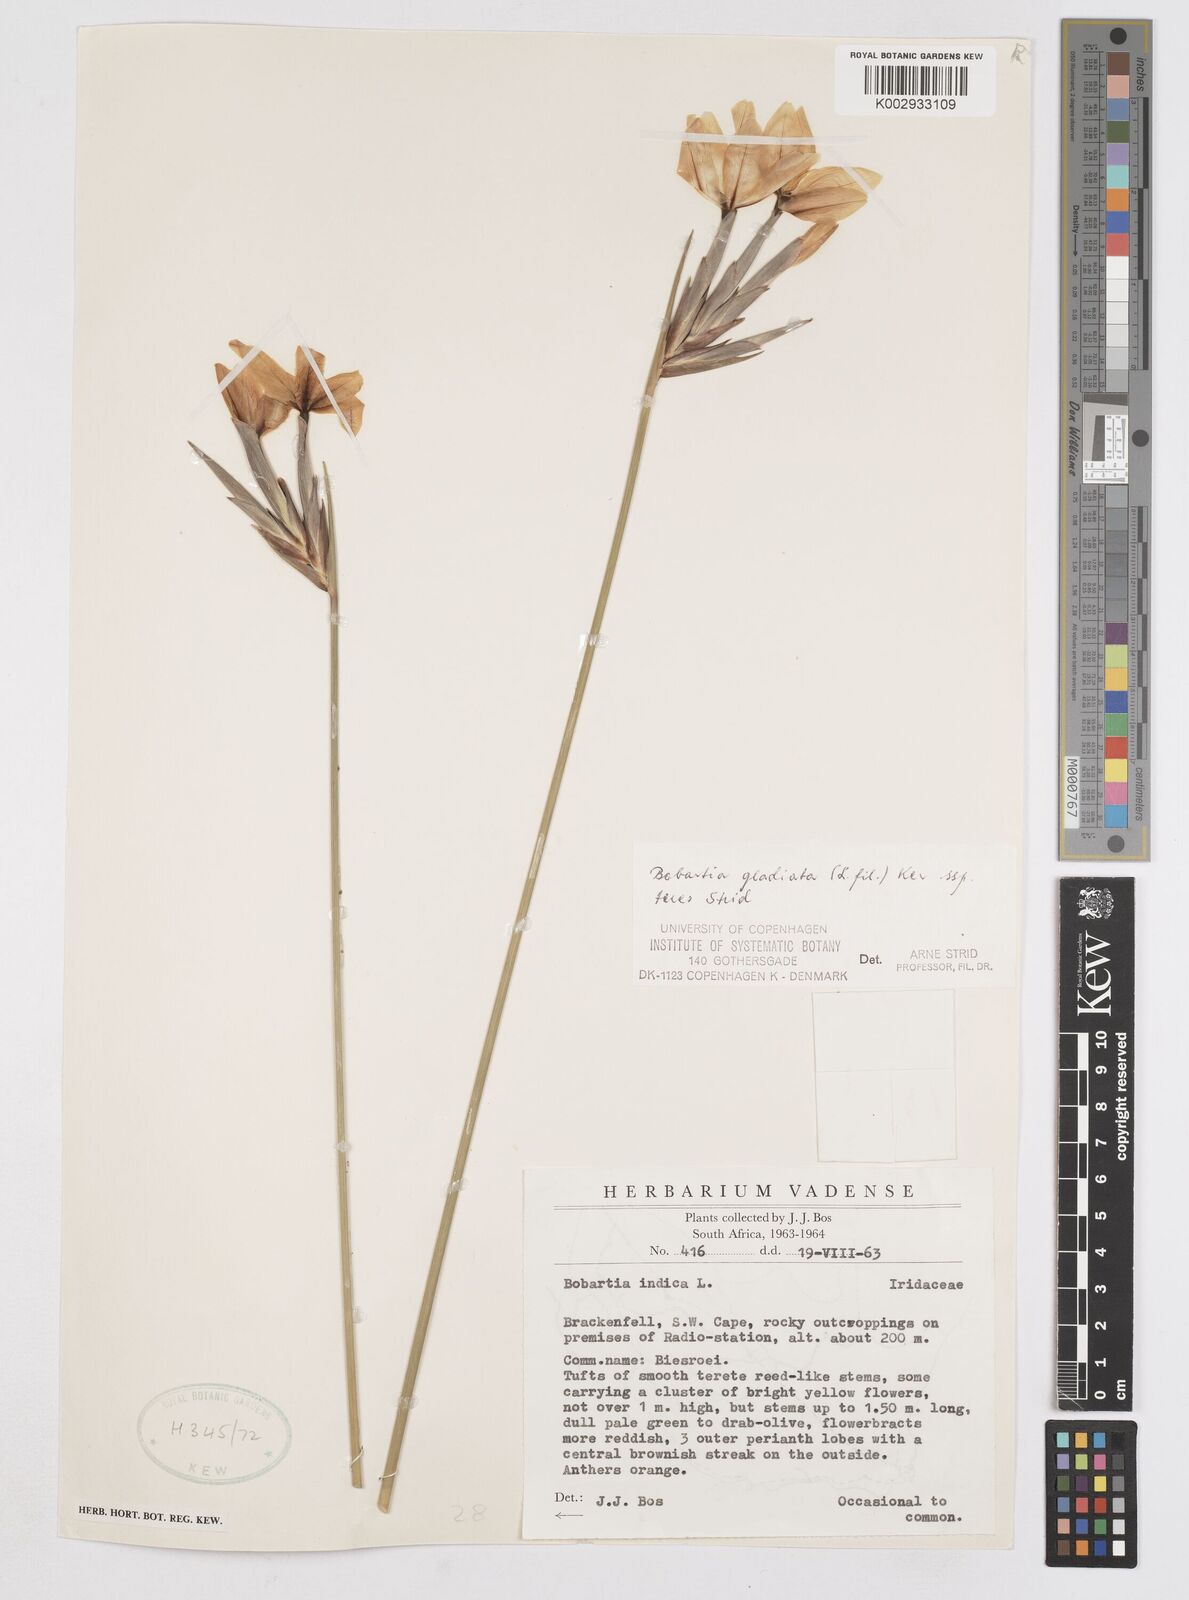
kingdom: Plantae
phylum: Tracheophyta
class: Liliopsida
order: Asparagales
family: Iridaceae
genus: Bobartia
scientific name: Bobartia gladiata
